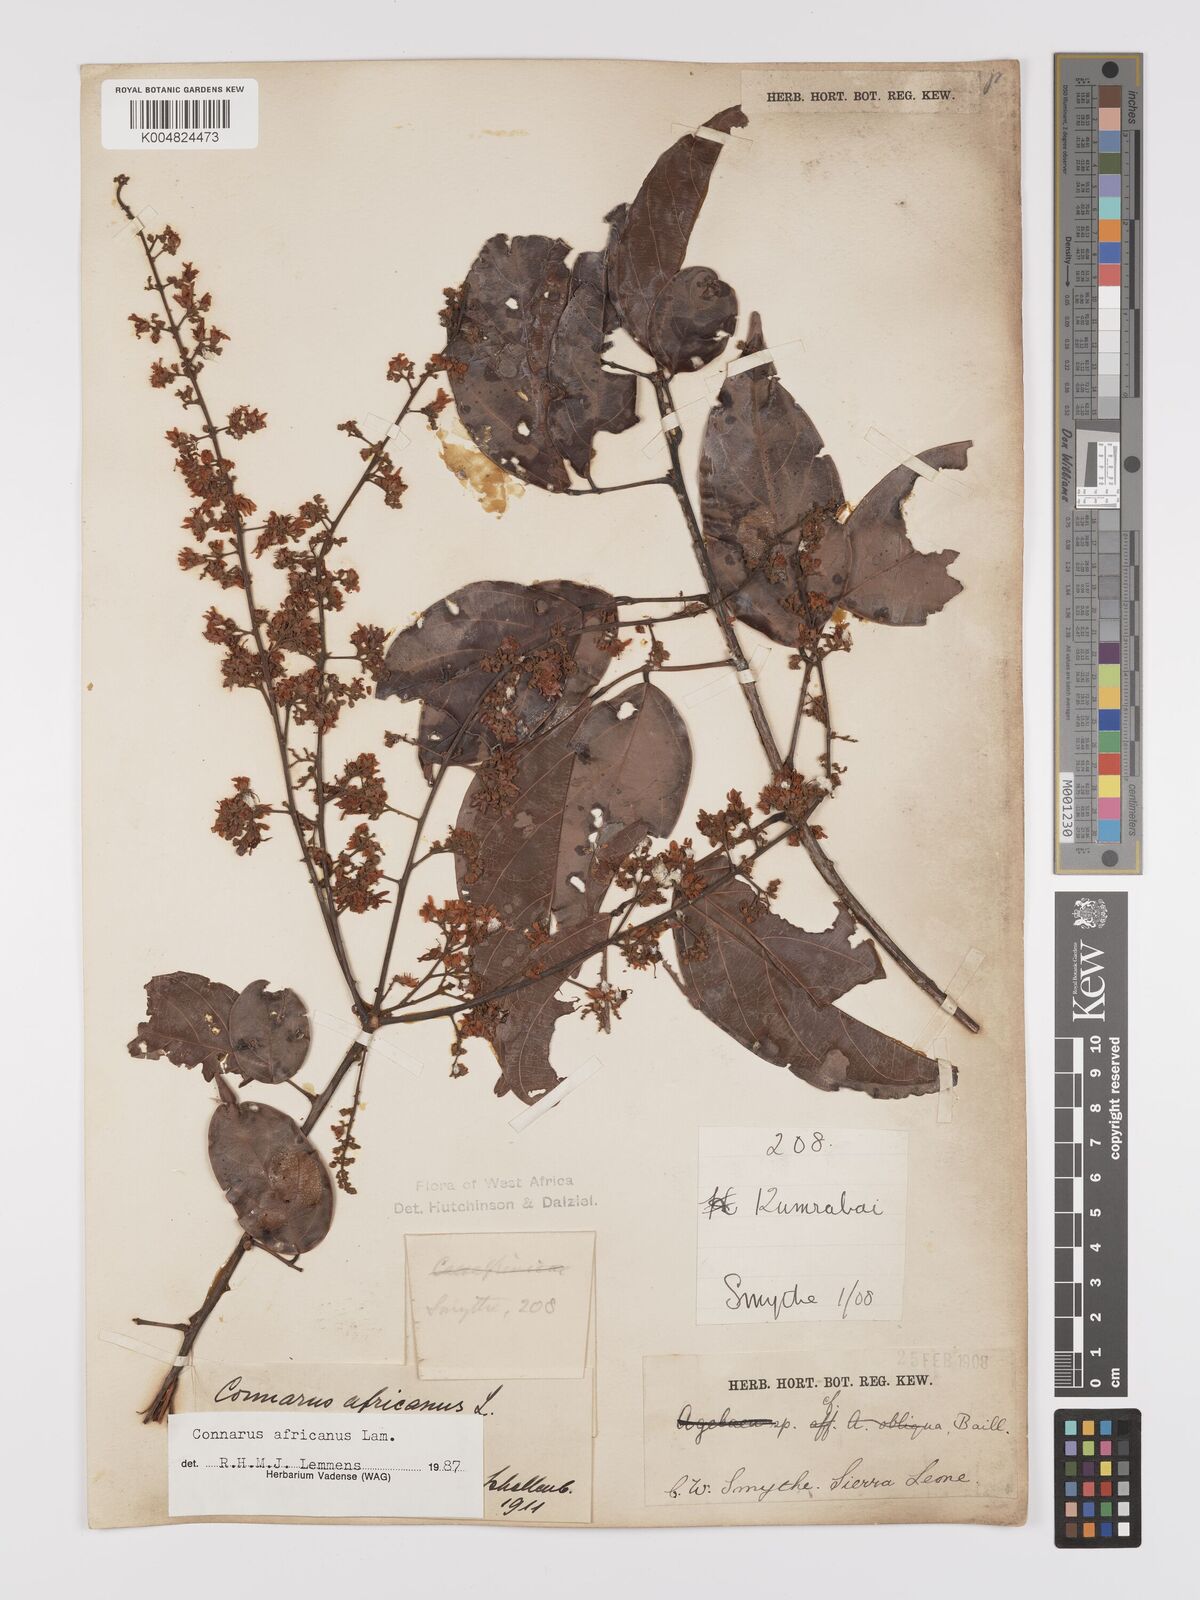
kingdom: Plantae
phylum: Tracheophyta
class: Magnoliopsida
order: Oxalidales
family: Connaraceae
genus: Connarus
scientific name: Connarus africanus
